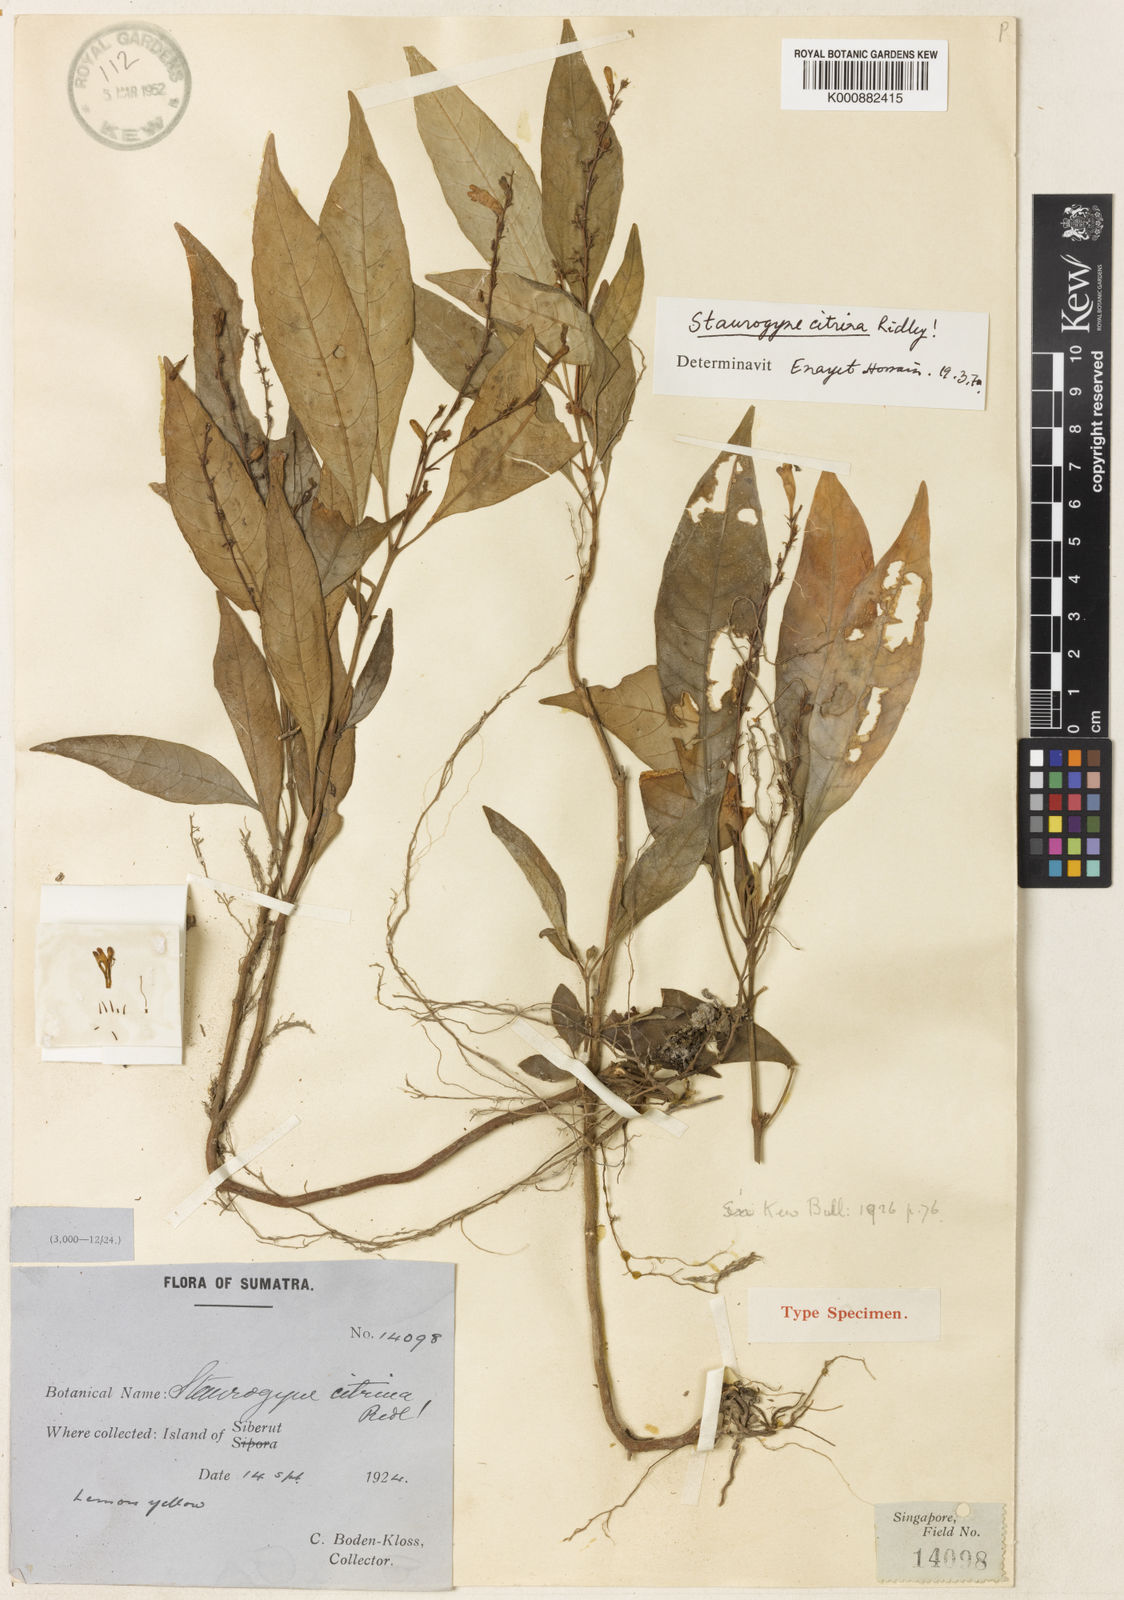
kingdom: Plantae
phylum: Tracheophyta
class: Magnoliopsida
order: Lamiales
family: Acanthaceae
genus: Staurogyne
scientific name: Staurogyne citrina
